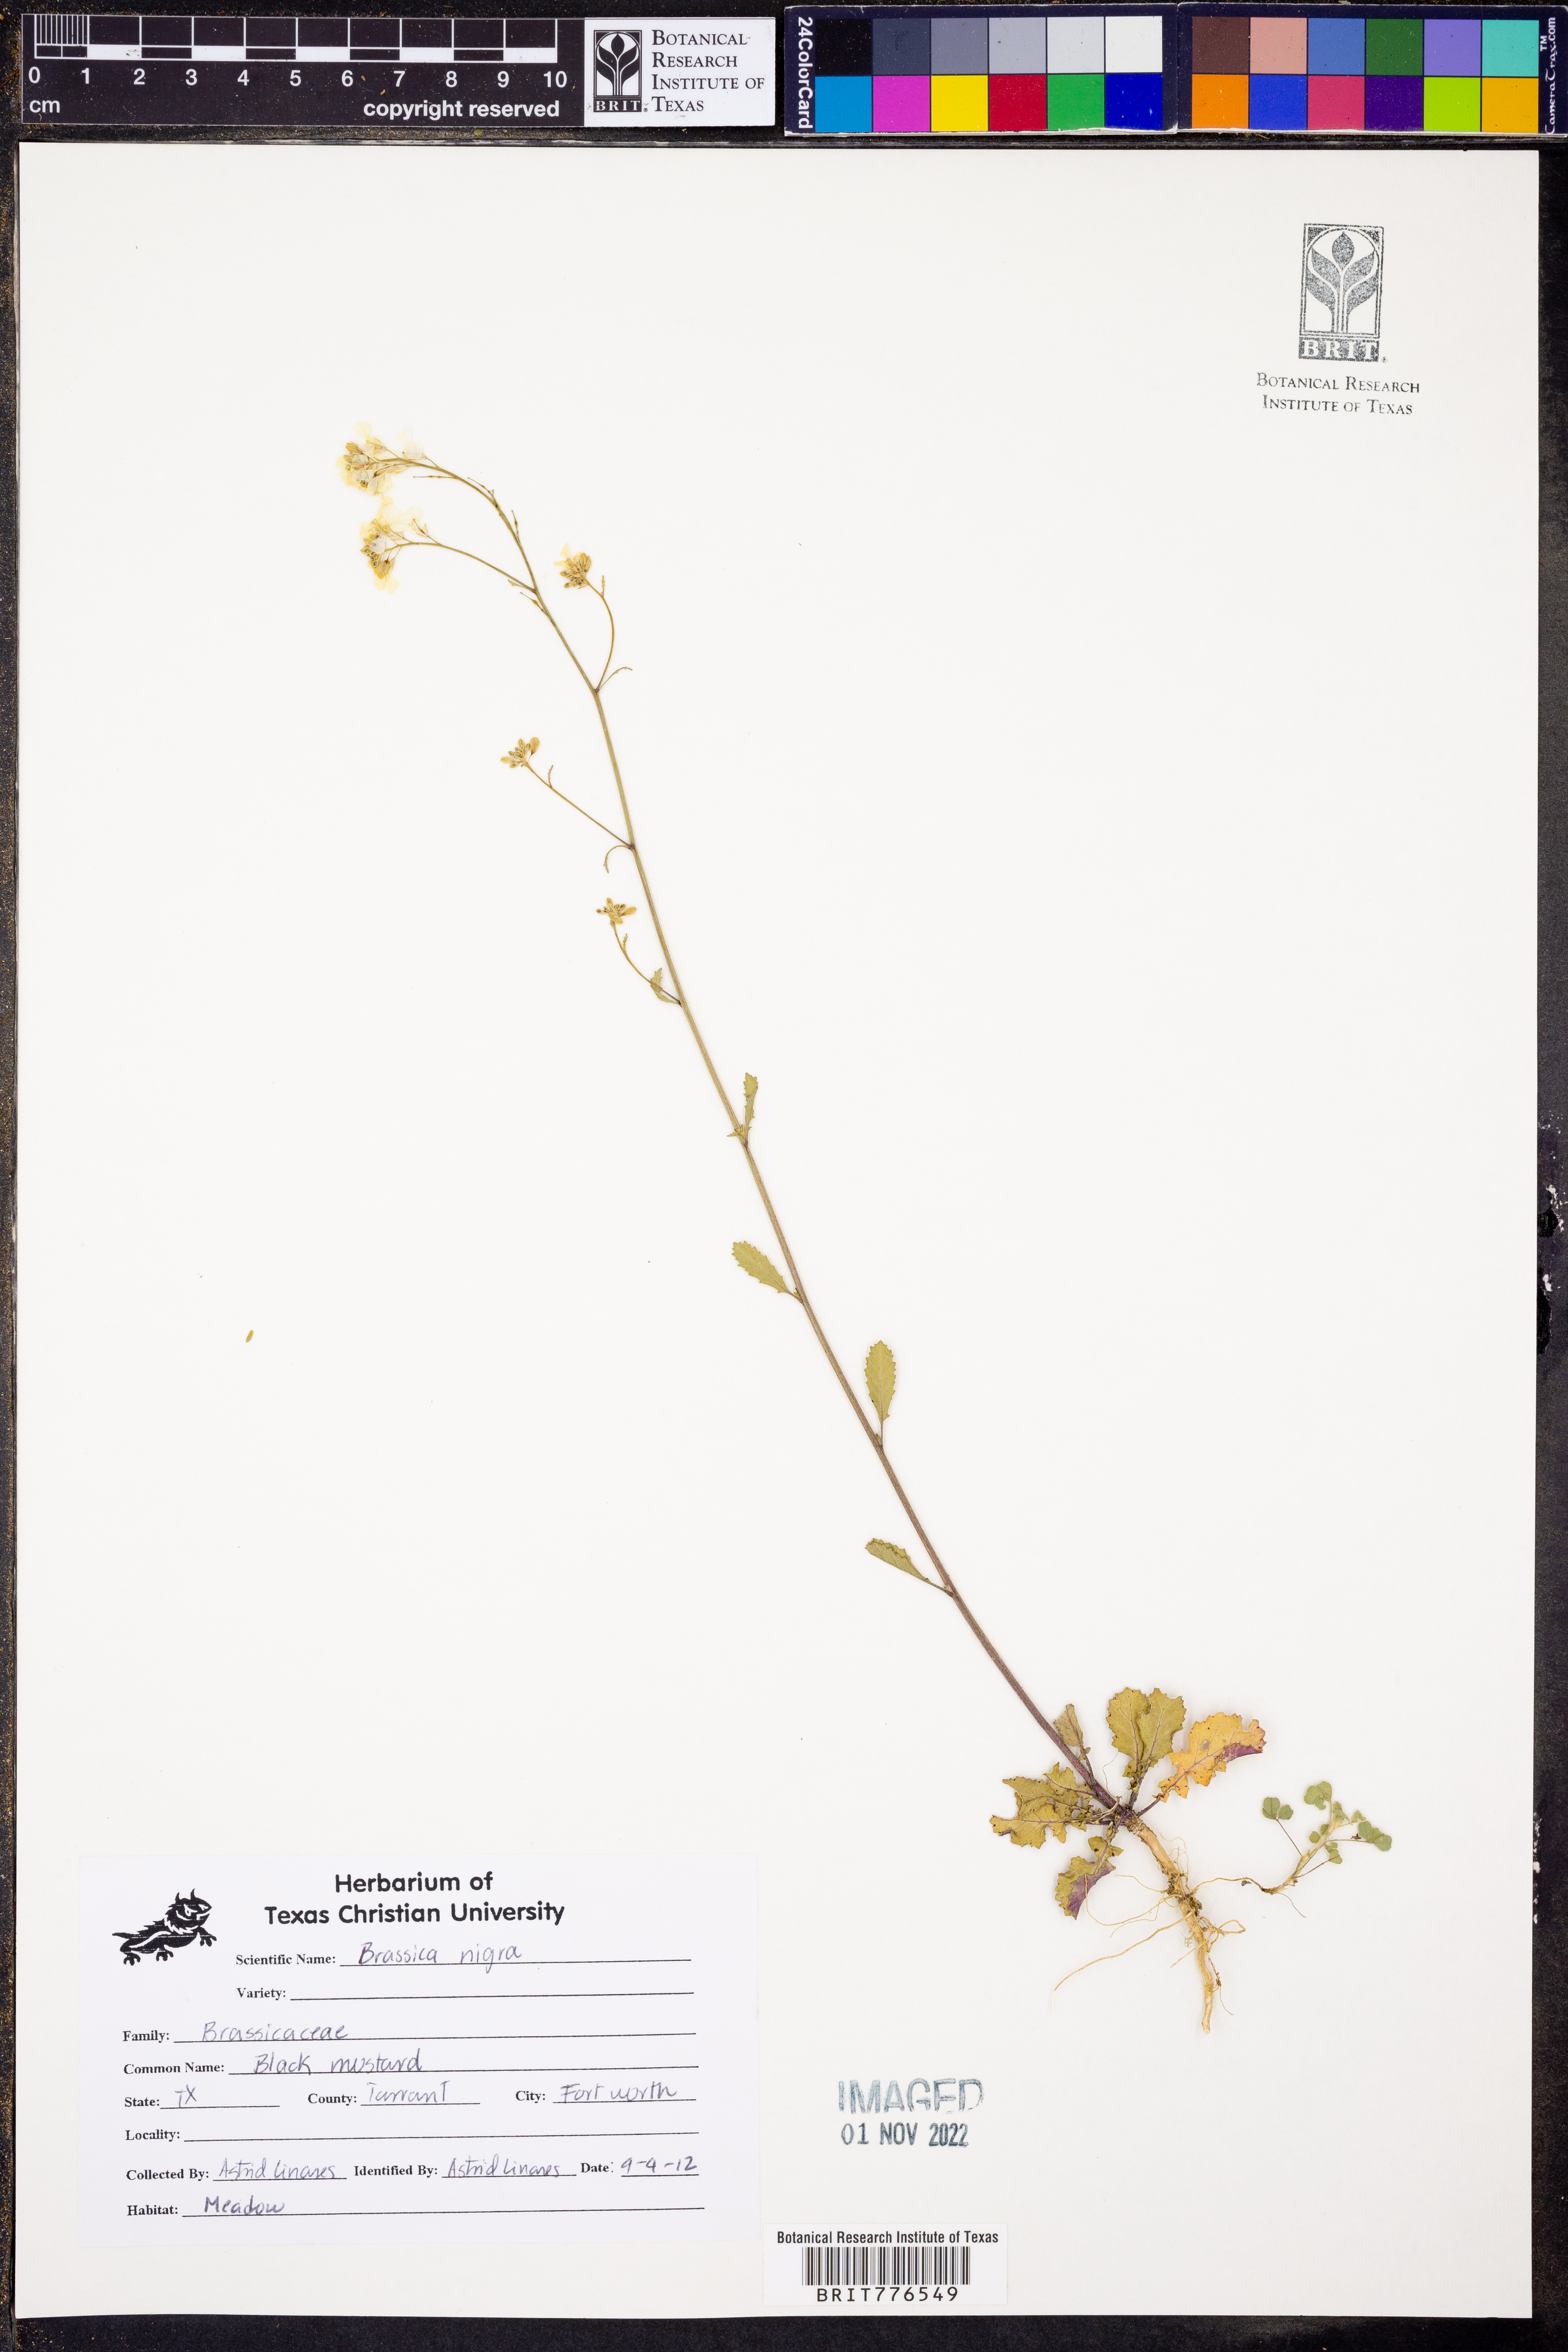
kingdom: Plantae
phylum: Tracheophyta
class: Magnoliopsida
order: Brassicales
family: Brassicaceae
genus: Brassica
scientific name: Brassica nigra
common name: Black mustard
